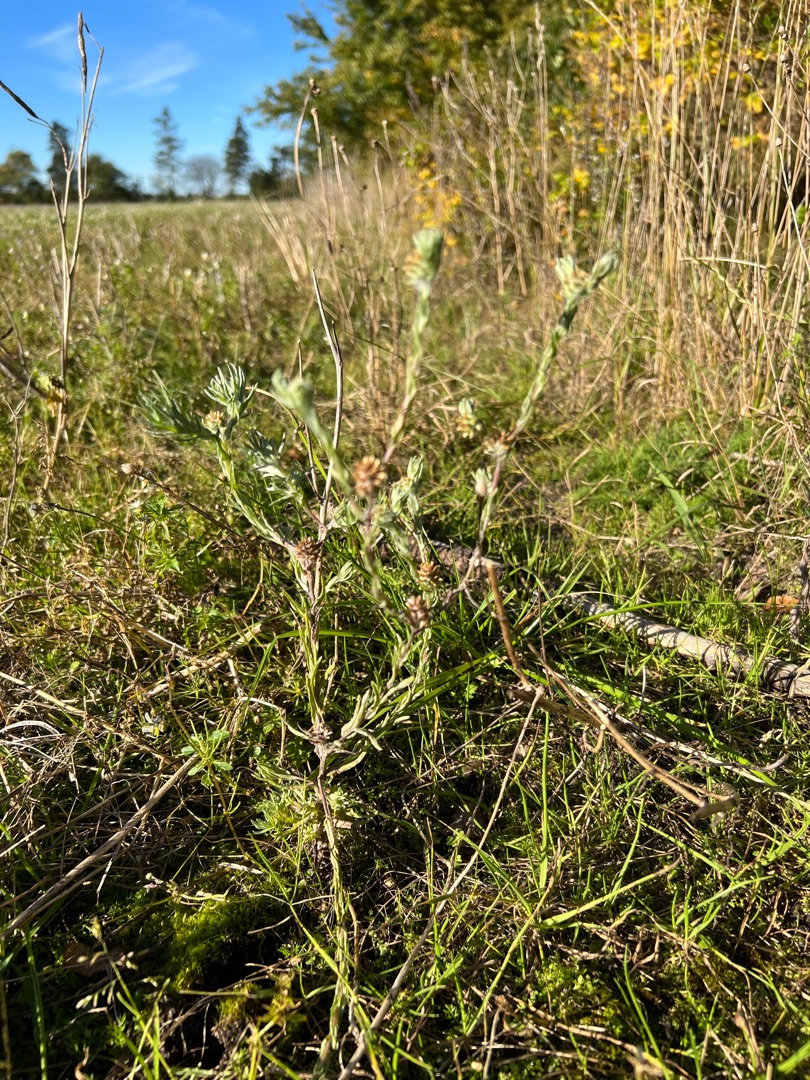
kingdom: Plantae
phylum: Tracheophyta
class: Magnoliopsida
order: Asterales
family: Asteraceae
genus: Filago
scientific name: Filago germanica
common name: Kugle-museurt
